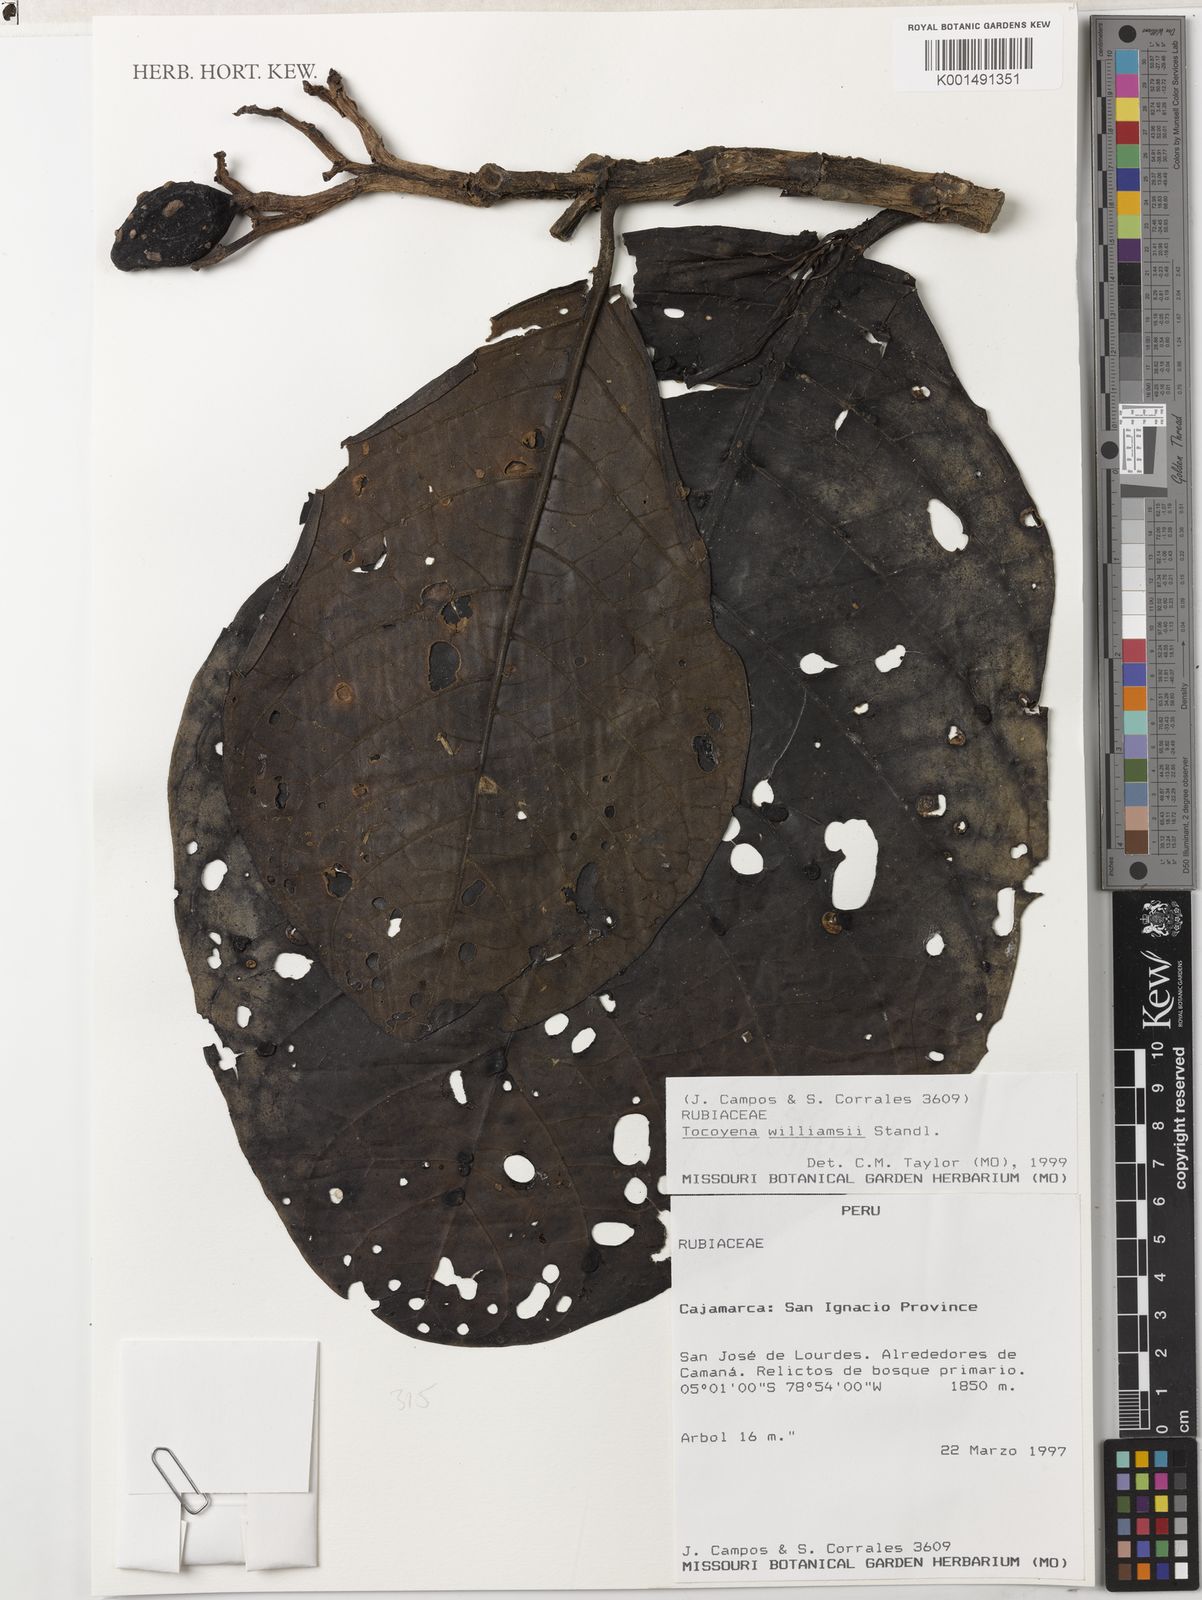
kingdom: Plantae
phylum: Tracheophyta
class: Magnoliopsida
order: Gentianales
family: Rubiaceae
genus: Tocoyena
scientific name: Tocoyena pittieri
